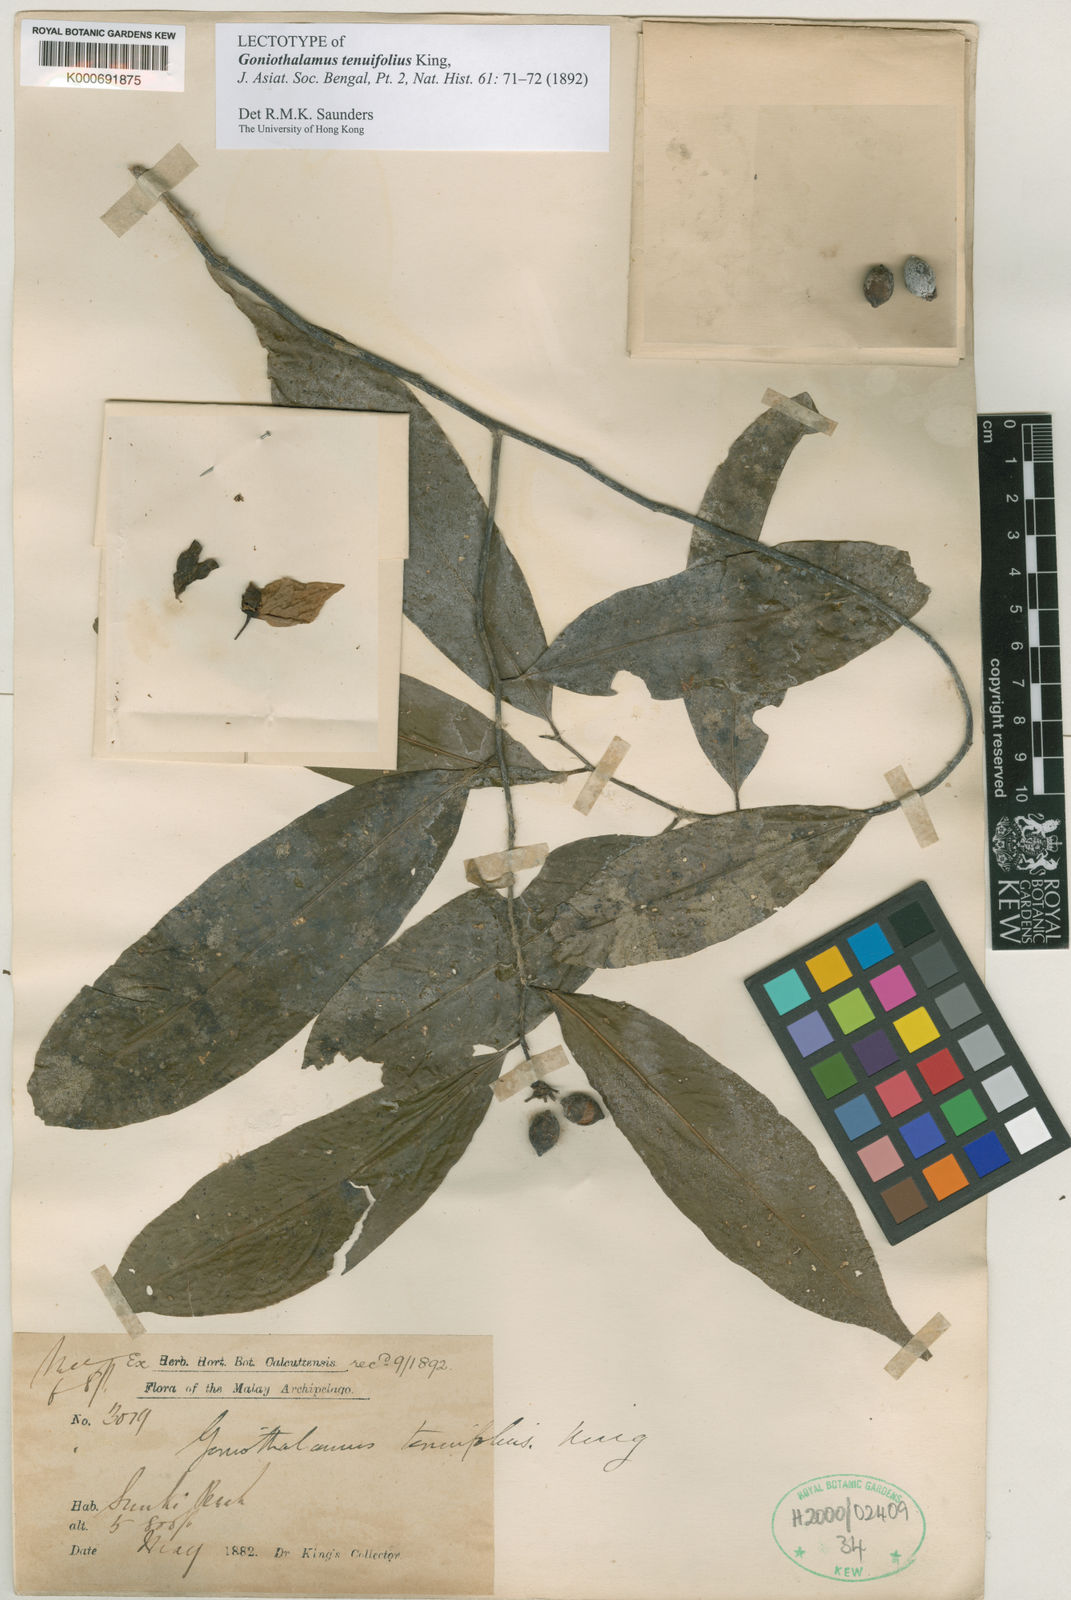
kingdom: Plantae
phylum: Tracheophyta
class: Magnoliopsida
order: Magnoliales
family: Annonaceae
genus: Goniothalamus
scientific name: Goniothalamus tenuifolius
